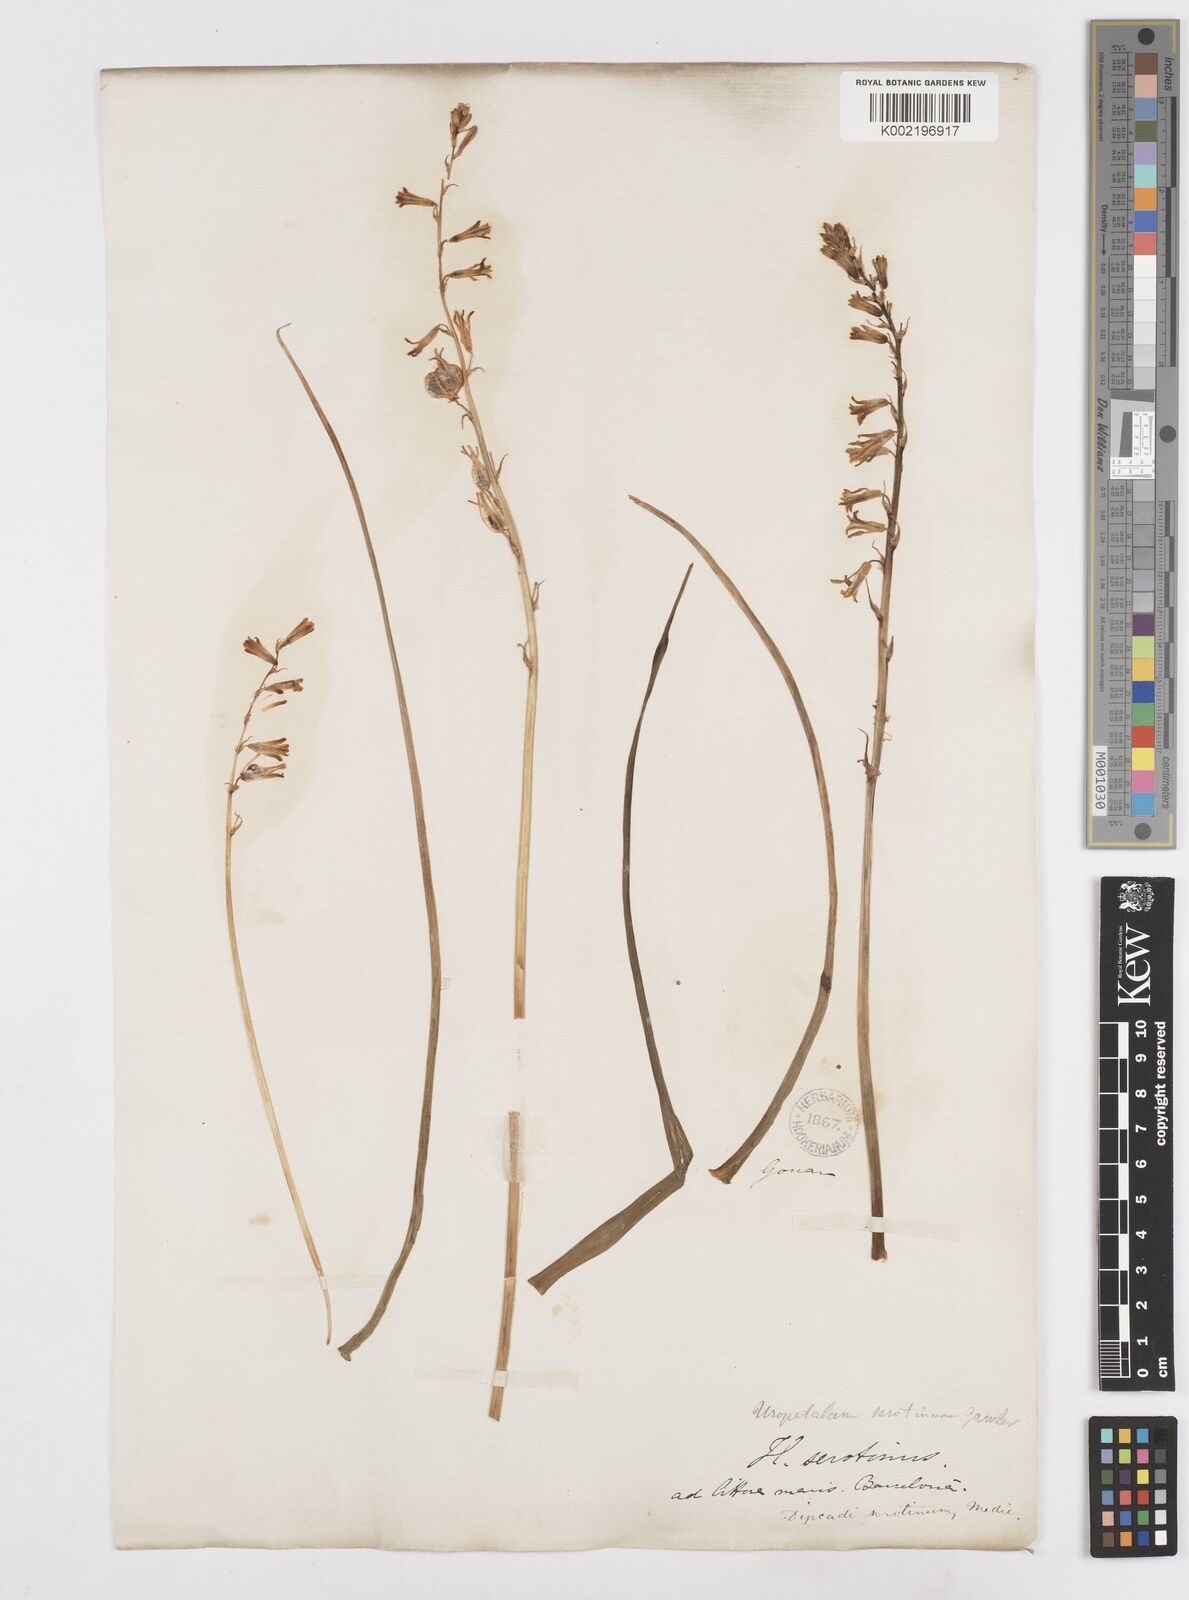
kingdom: Plantae
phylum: Tracheophyta
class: Liliopsida
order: Asparagales
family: Asparagaceae
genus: Dipcadi
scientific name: Dipcadi serotinum
